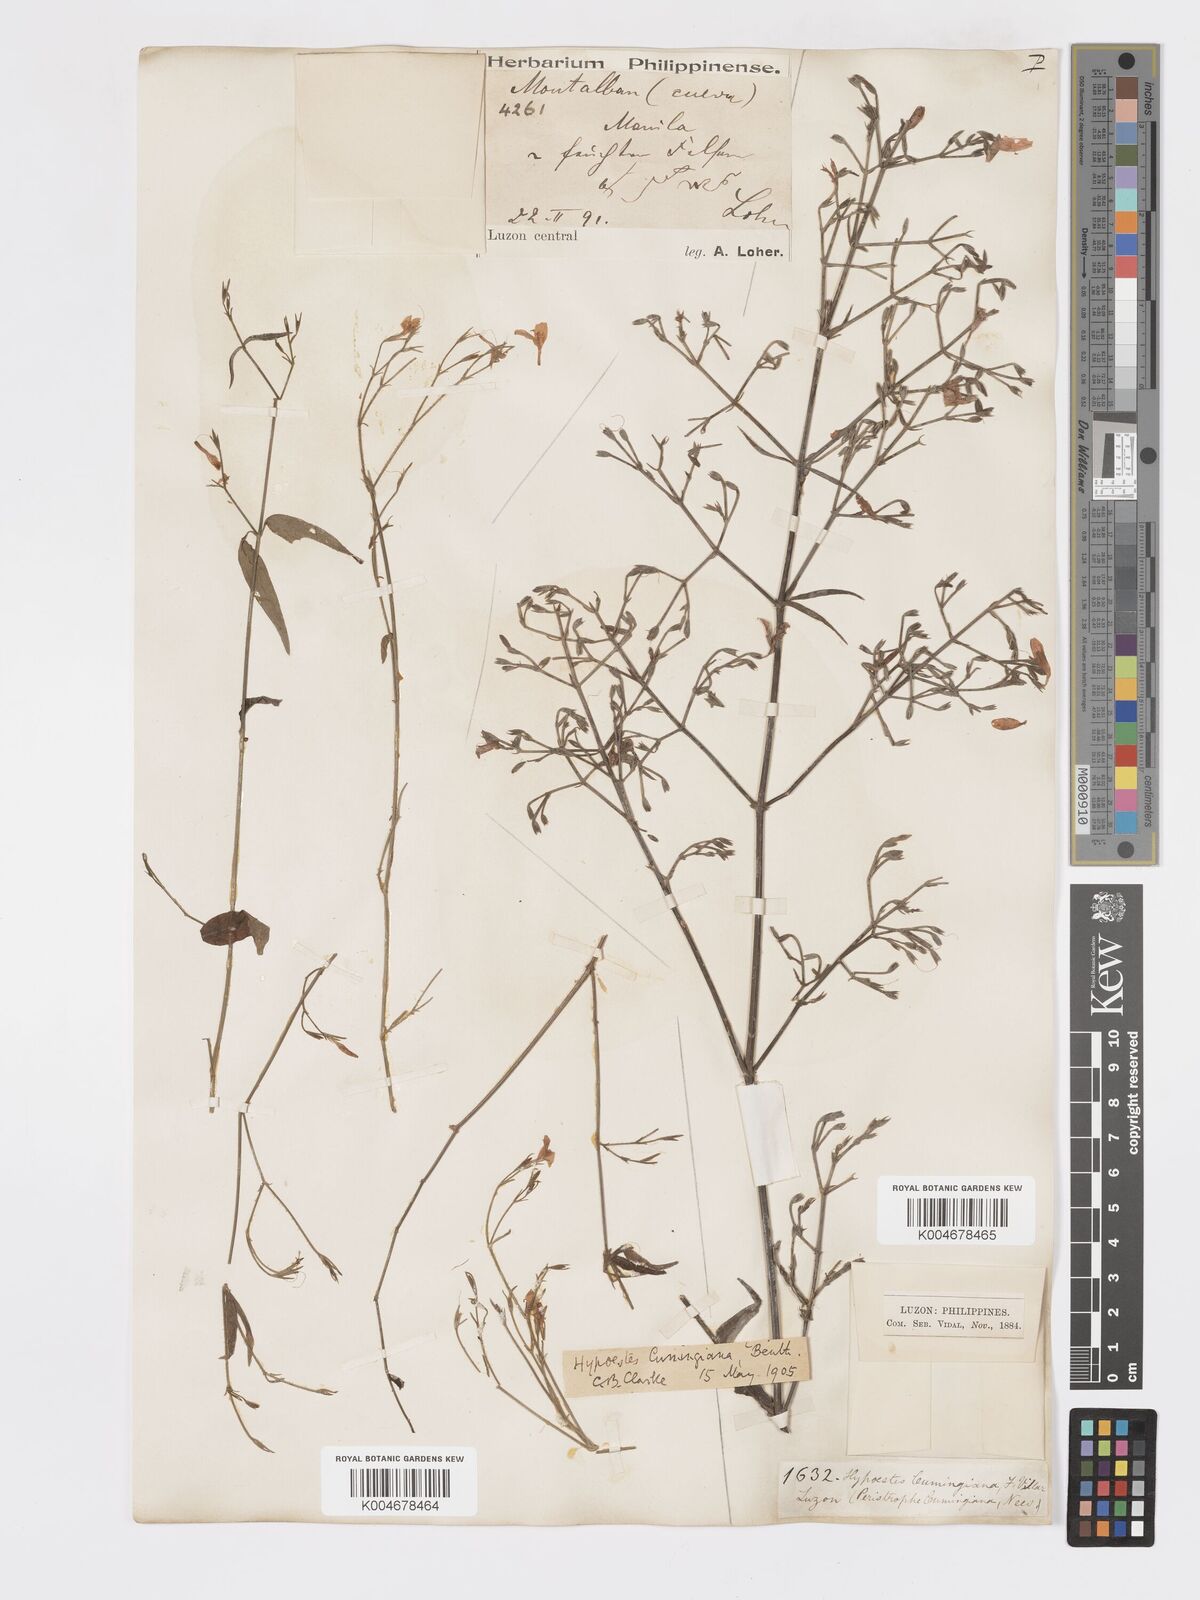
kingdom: Plantae
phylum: Tracheophyta
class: Magnoliopsida
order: Lamiales
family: Acanthaceae
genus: Hypoestes
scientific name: Hypoestes cumingiana
